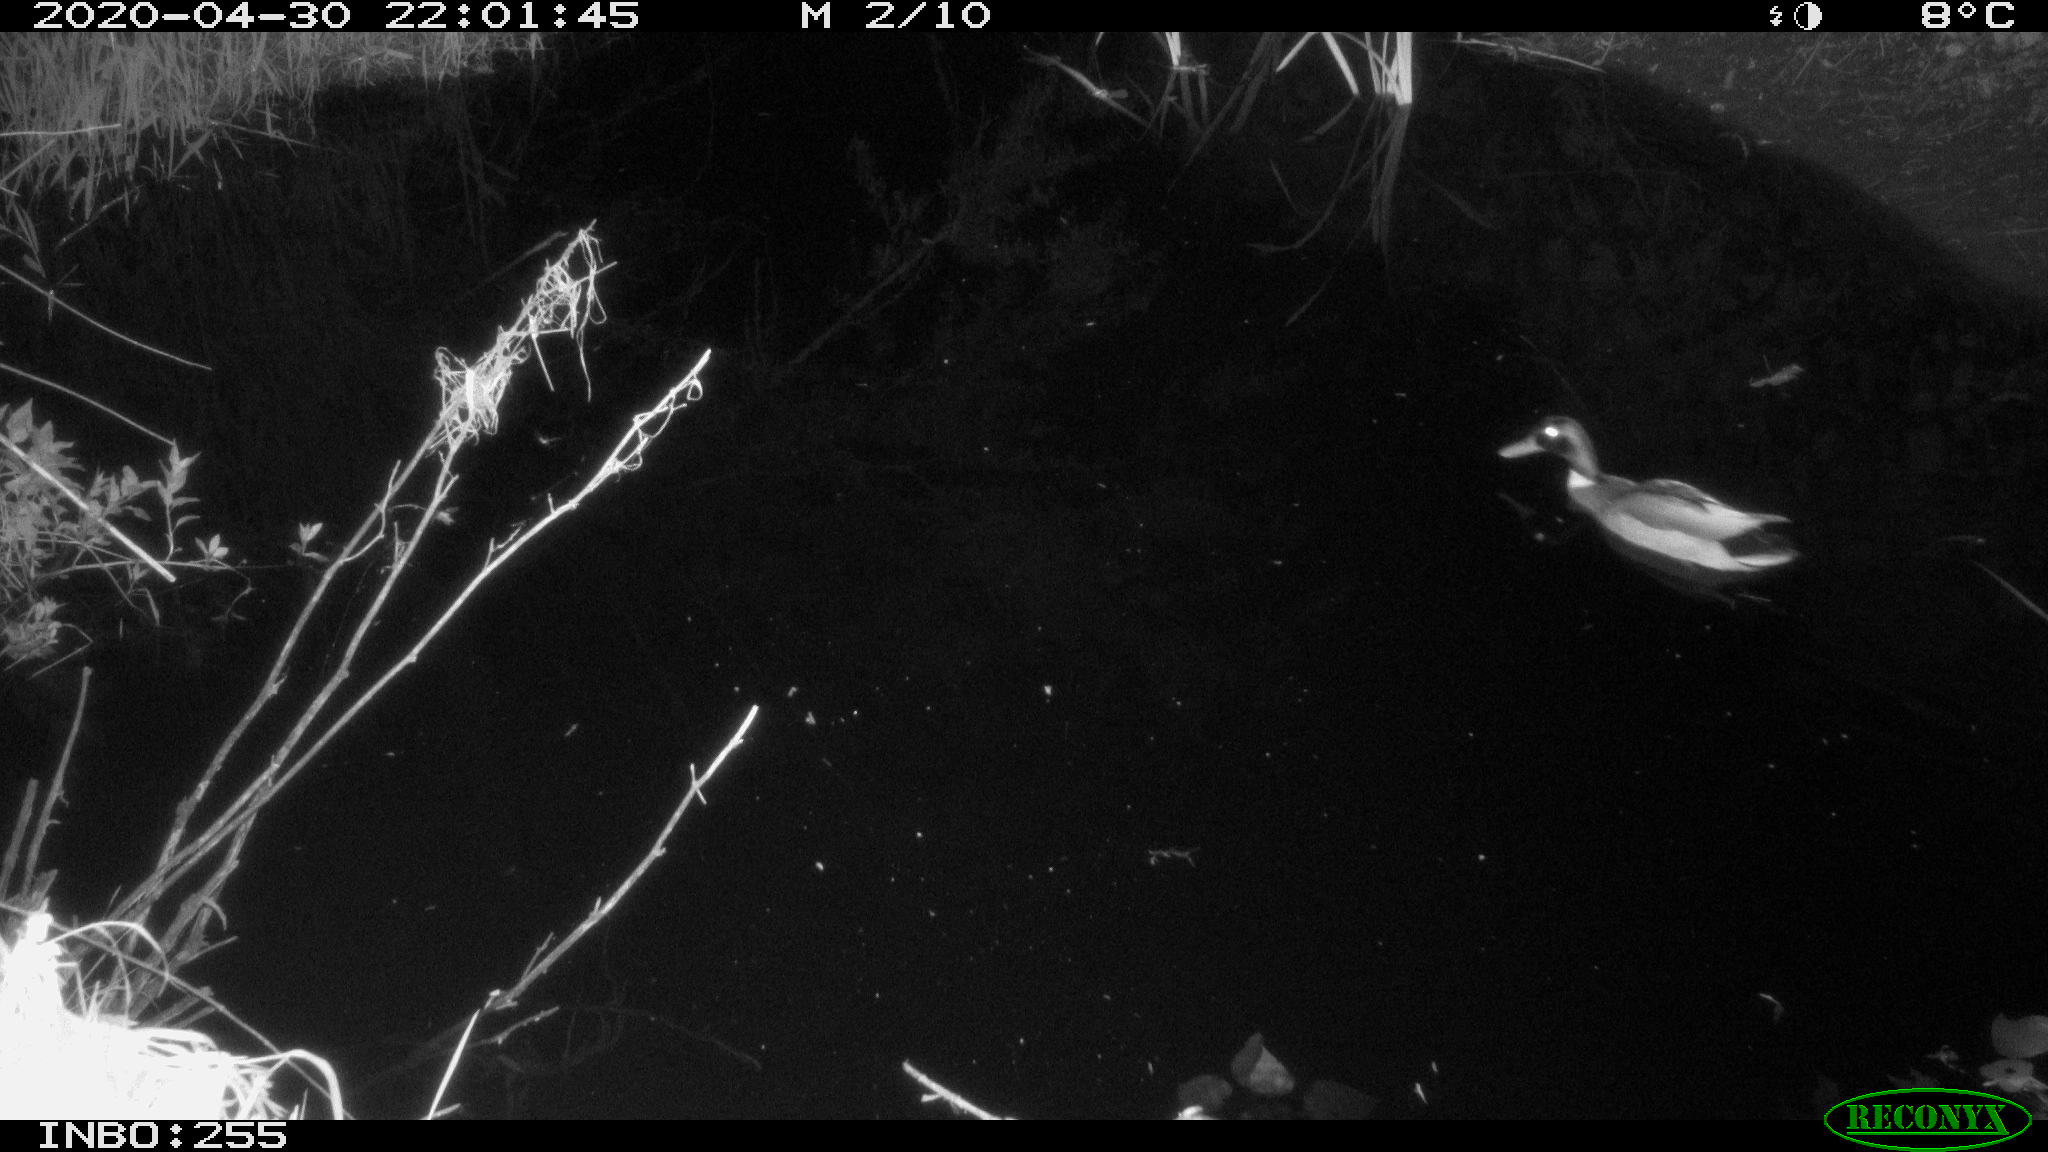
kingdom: Animalia
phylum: Chordata
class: Aves
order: Anseriformes
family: Anatidae
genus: Anas
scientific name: Anas platyrhynchos
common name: Mallard
